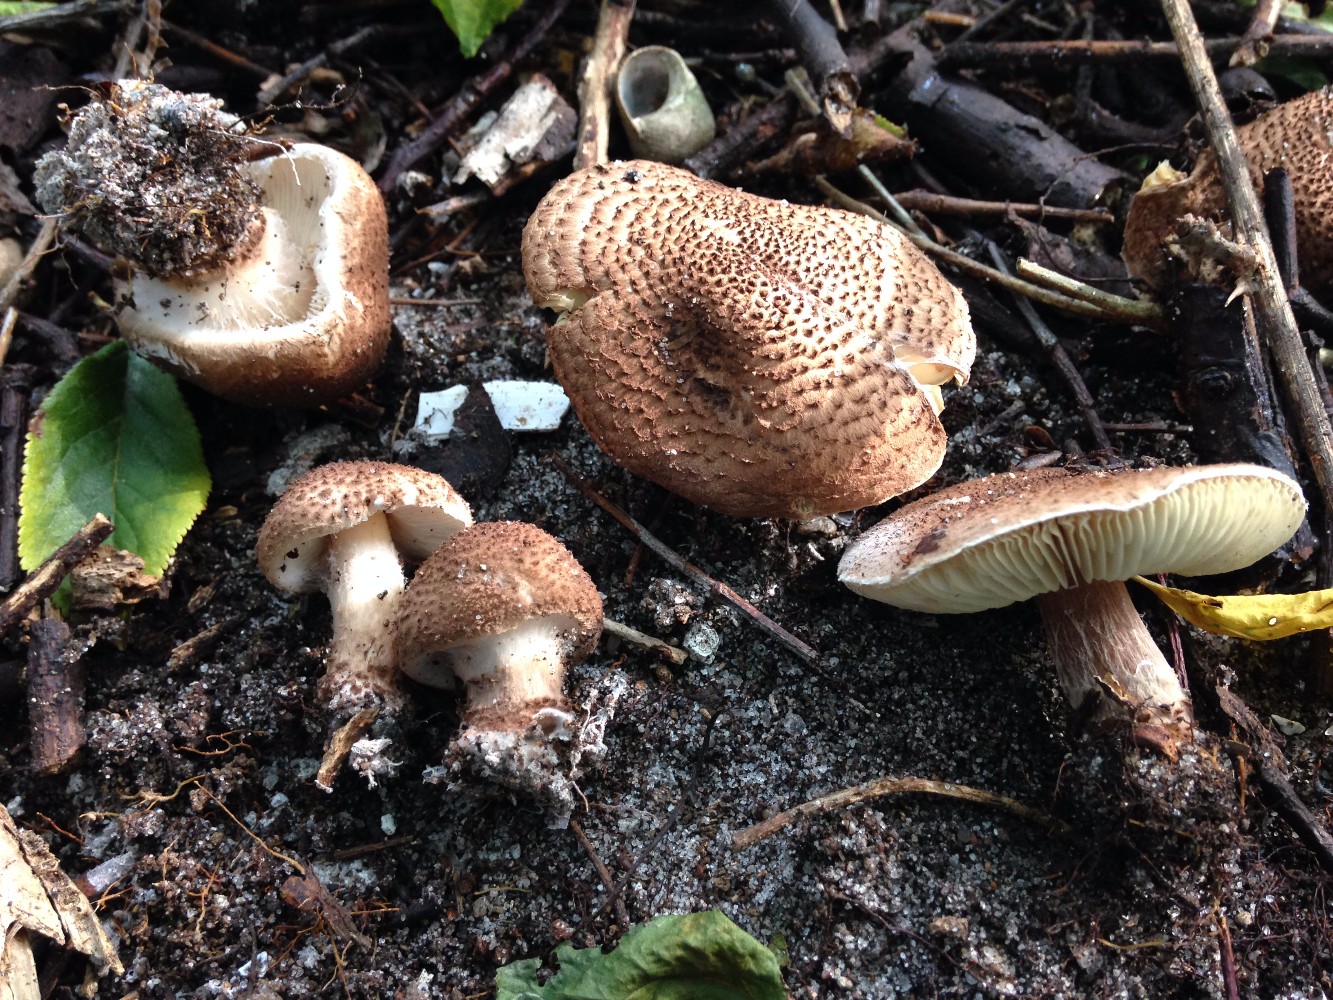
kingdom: Fungi
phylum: Basidiomycota
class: Agaricomycetes
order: Agaricales
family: Agaricaceae
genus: Echinoderma
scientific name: Echinoderma echinaceum
